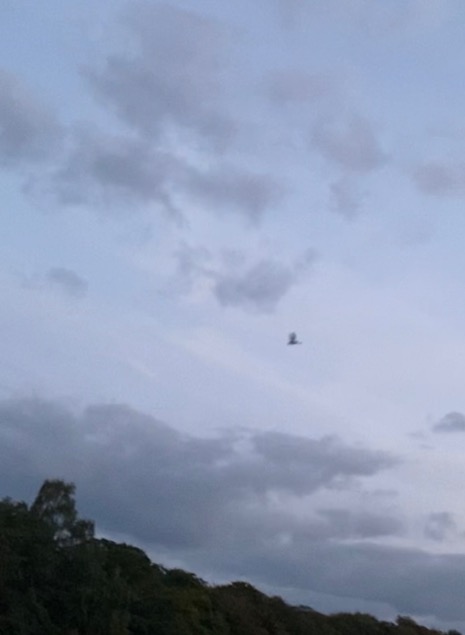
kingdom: Animalia
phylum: Chordata
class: Mammalia
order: Chiroptera
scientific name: Chiroptera
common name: Flagermus
